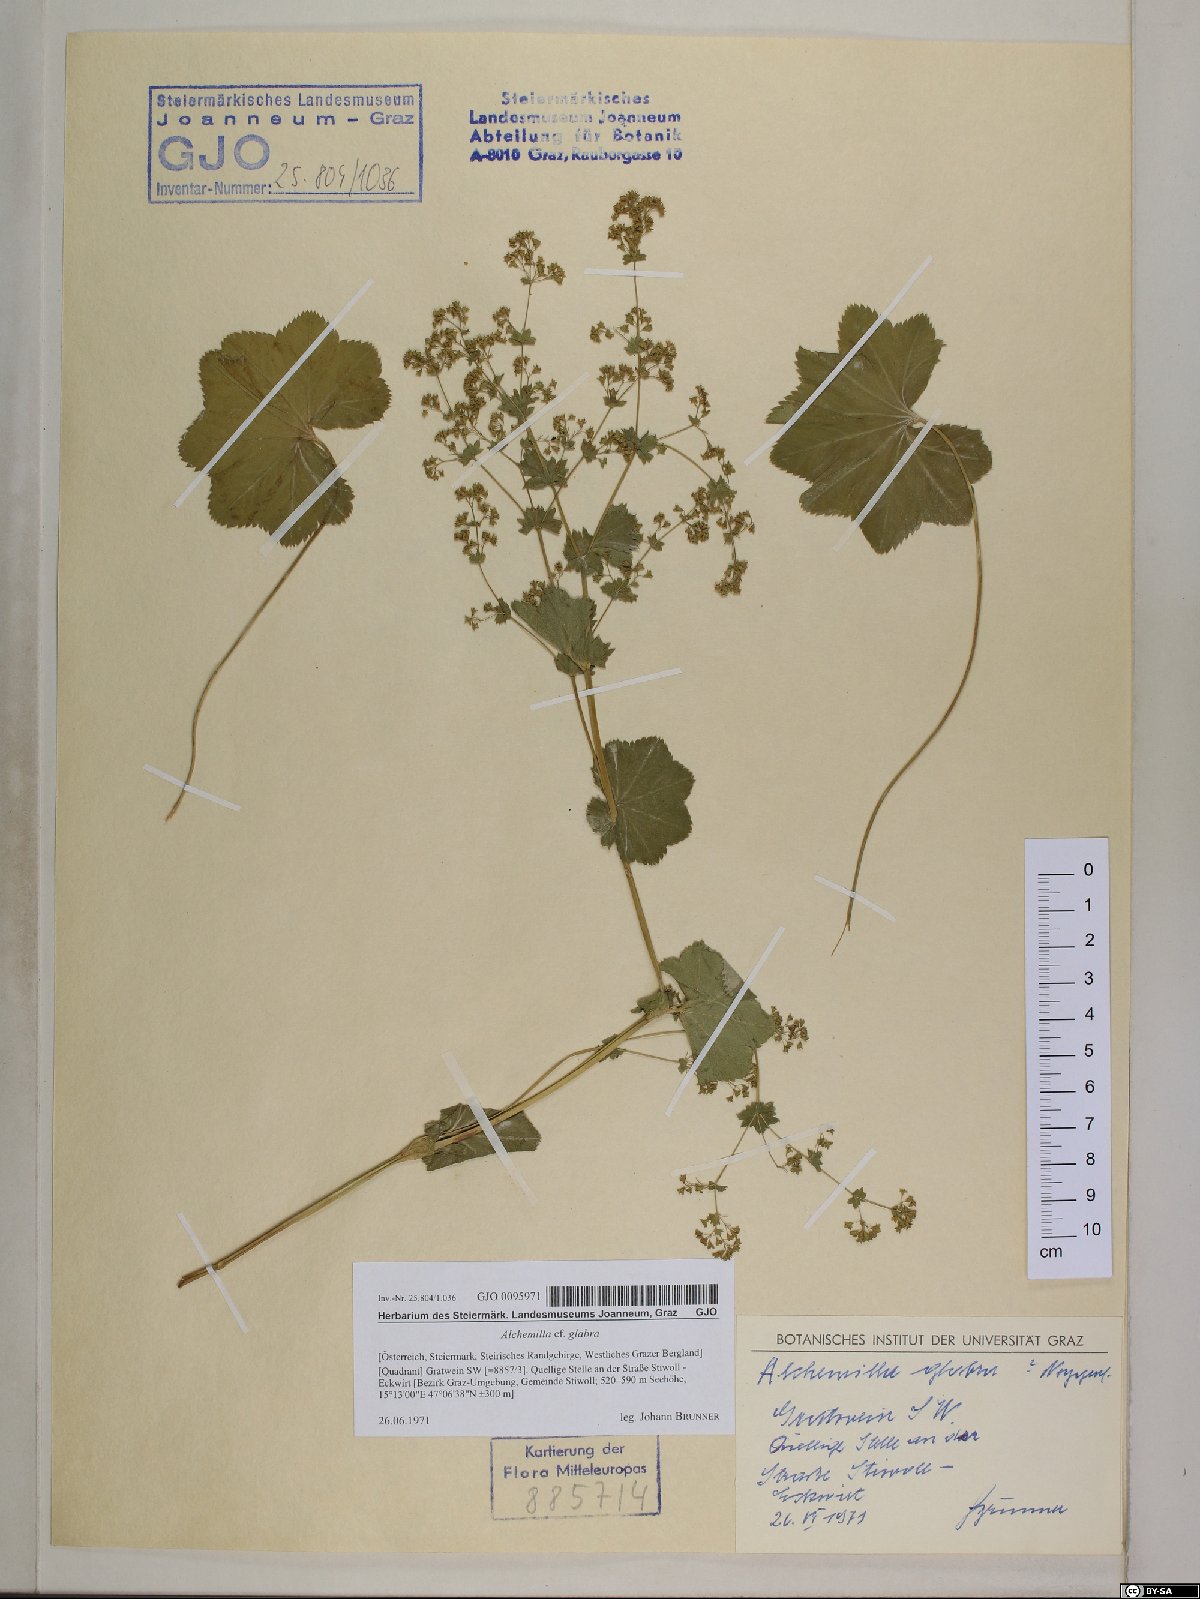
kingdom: Plantae
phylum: Tracheophyta
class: Magnoliopsida
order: Rosales
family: Rosaceae
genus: Alchemilla
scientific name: Alchemilla glabra
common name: Smooth lady's-mantle
